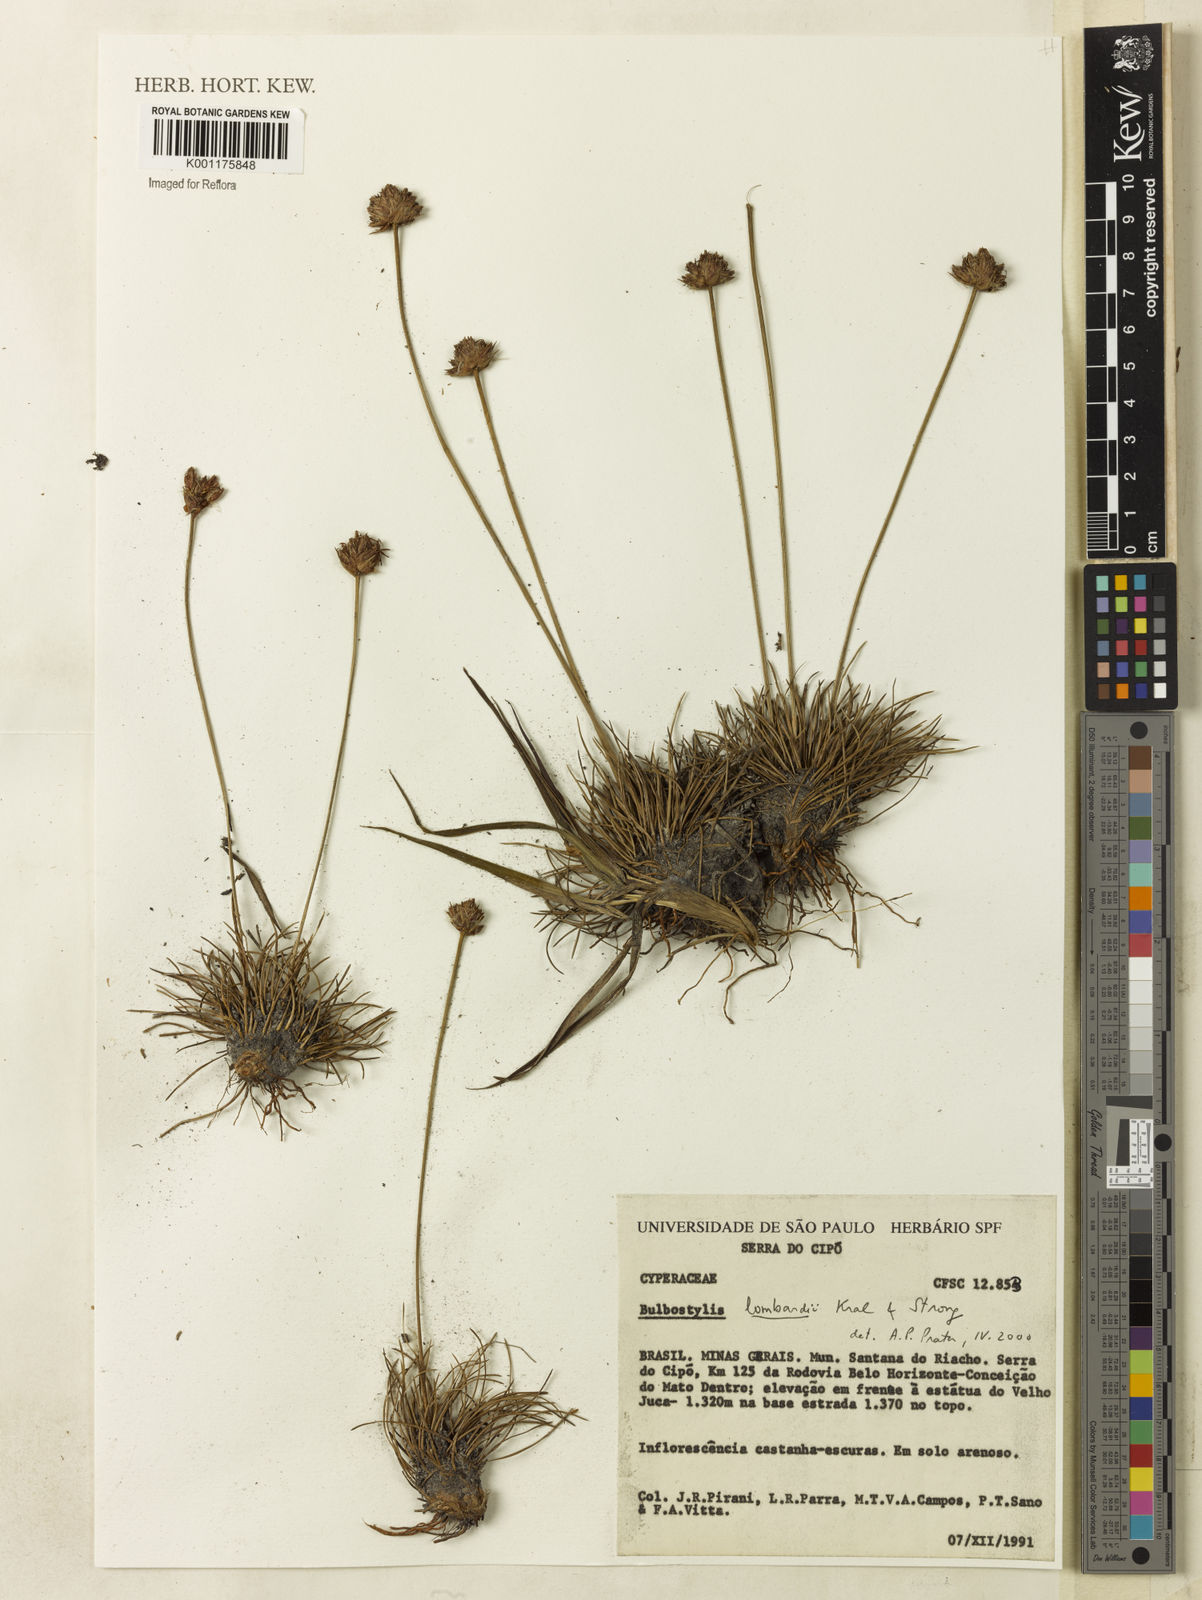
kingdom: Plantae
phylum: Tracheophyta
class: Liliopsida
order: Poales
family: Cyperaceae
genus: Bulbostylis
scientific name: Bulbostylis lombardii
